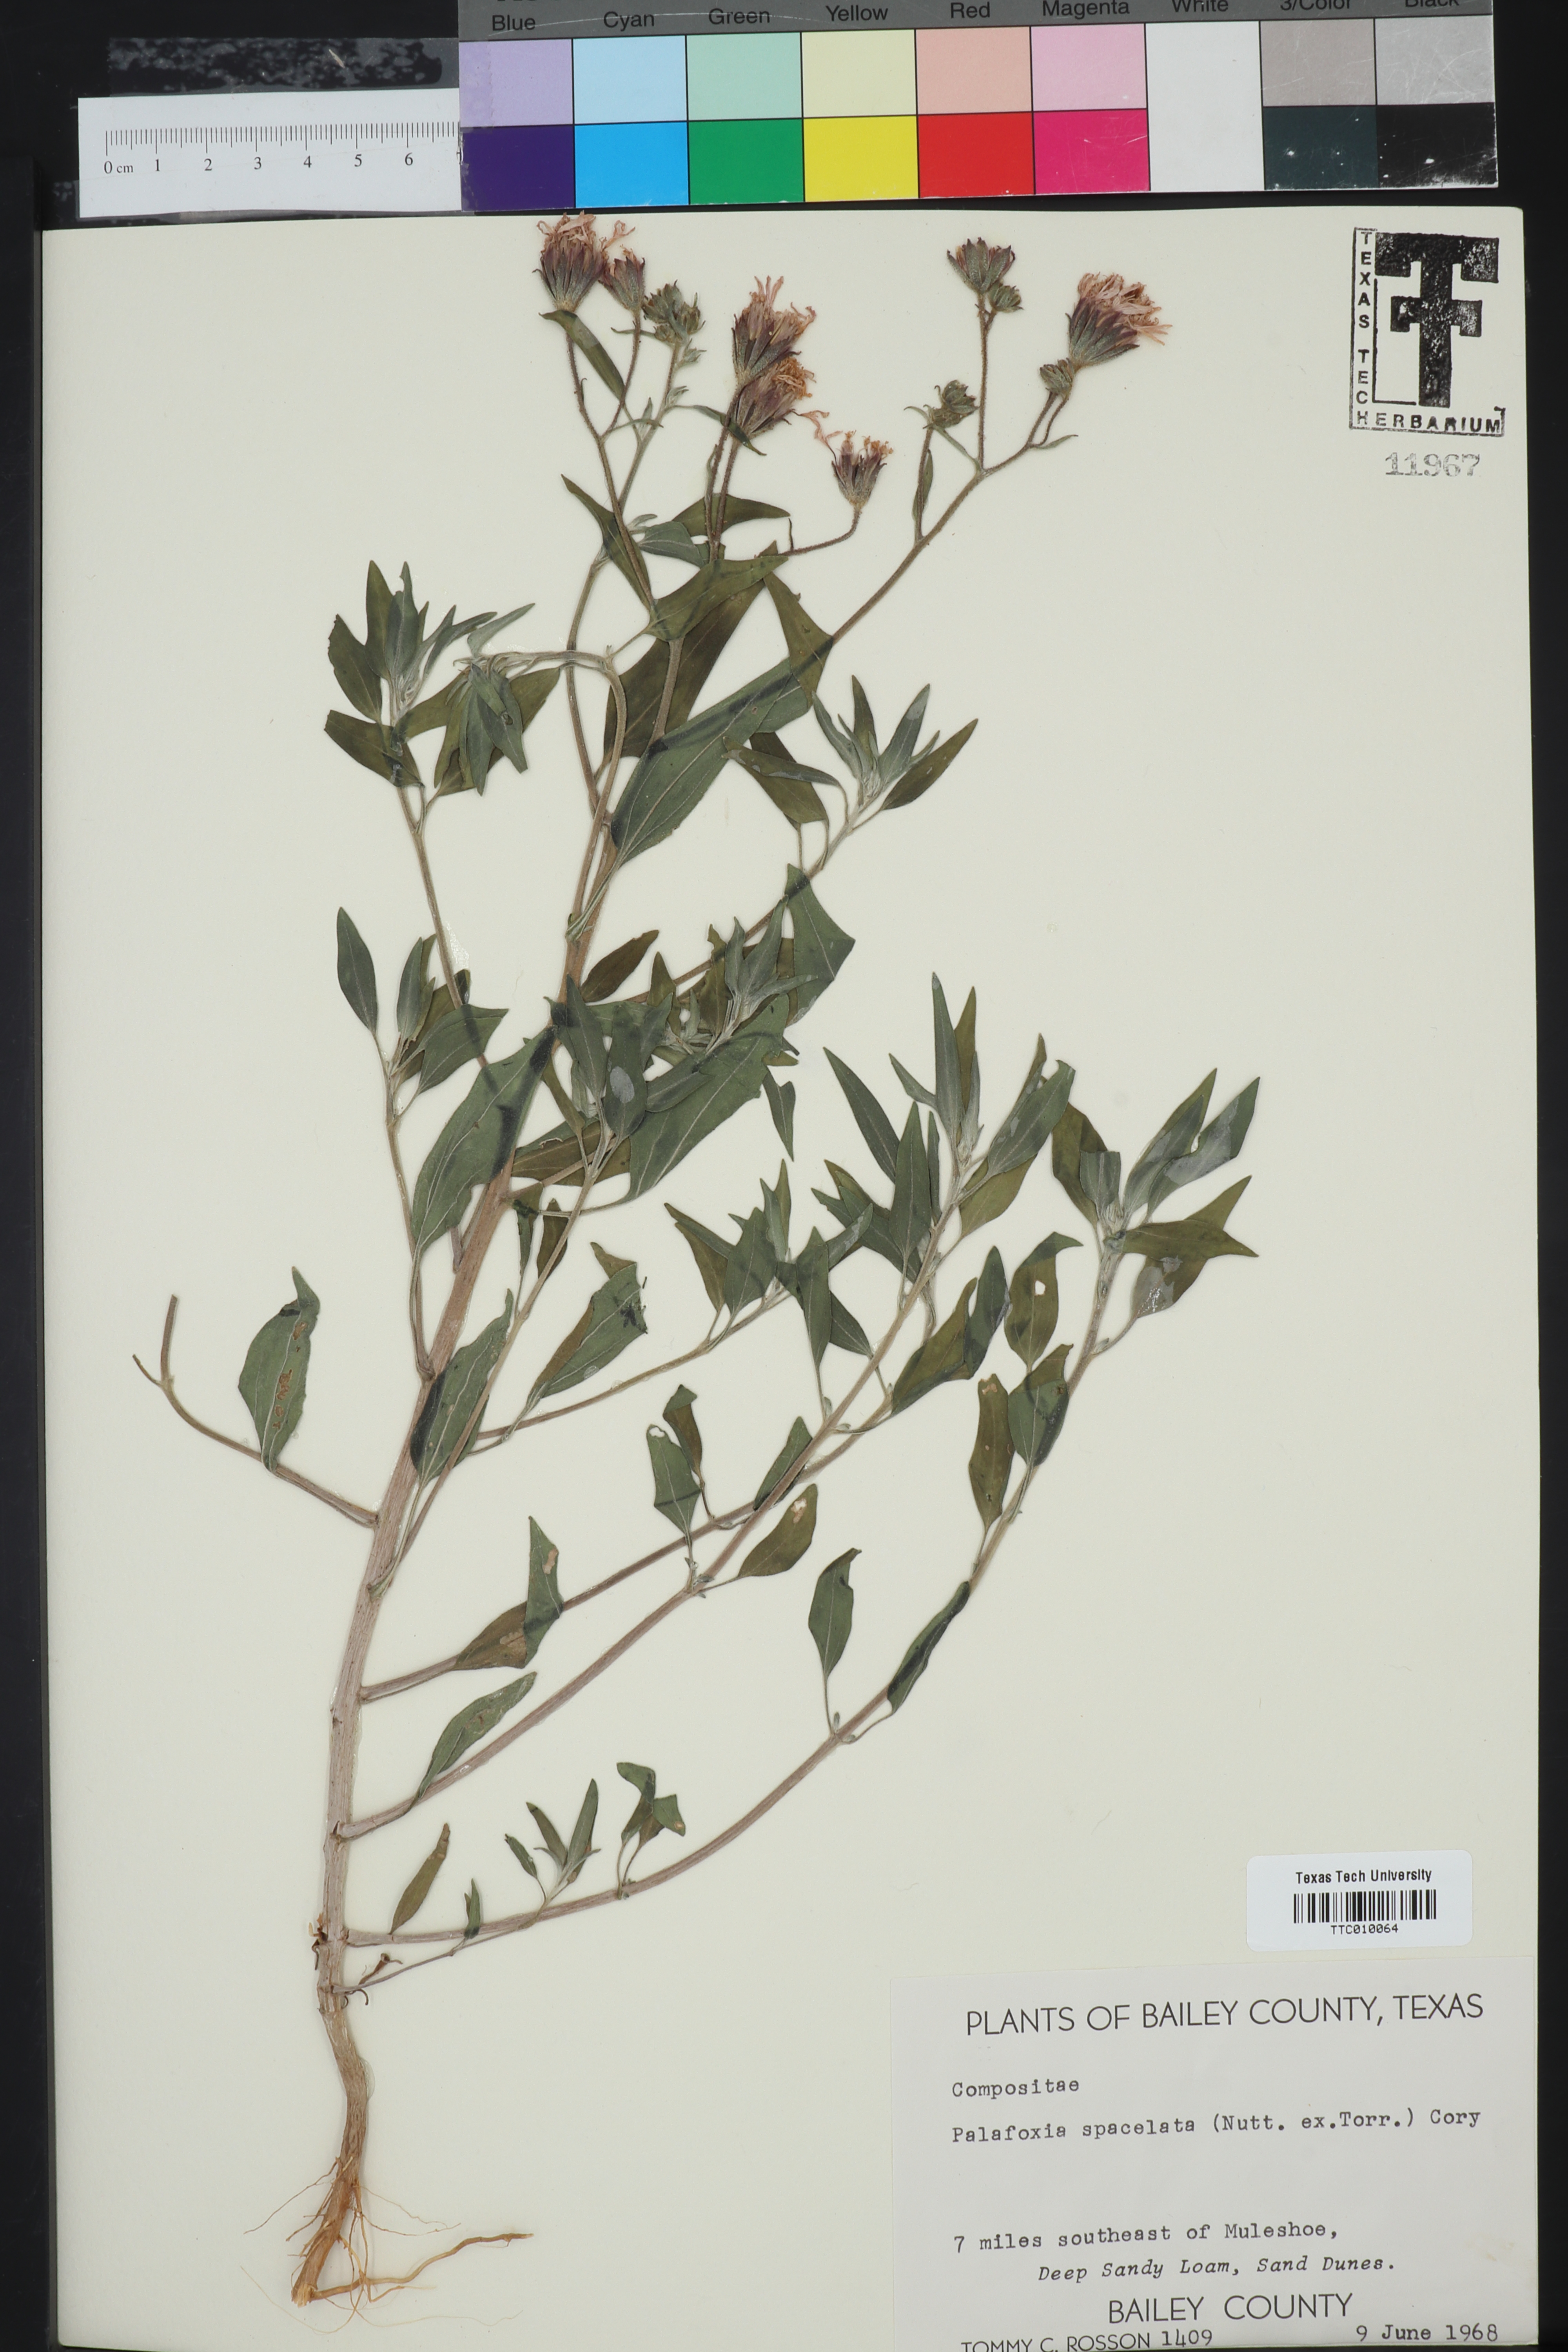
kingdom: Plantae
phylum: Tracheophyta
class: Magnoliopsida
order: Asterales
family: Asteraceae
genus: Palafoxia
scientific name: Palafoxia sphacelata
